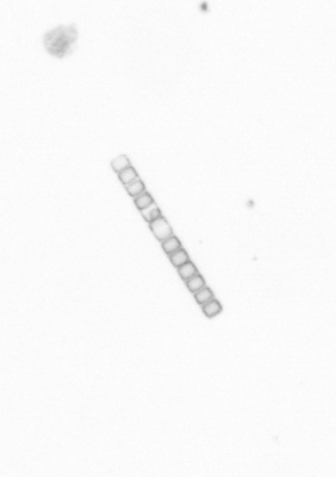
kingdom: Chromista
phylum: Ochrophyta
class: Bacillariophyceae
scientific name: Bacillariophyceae
